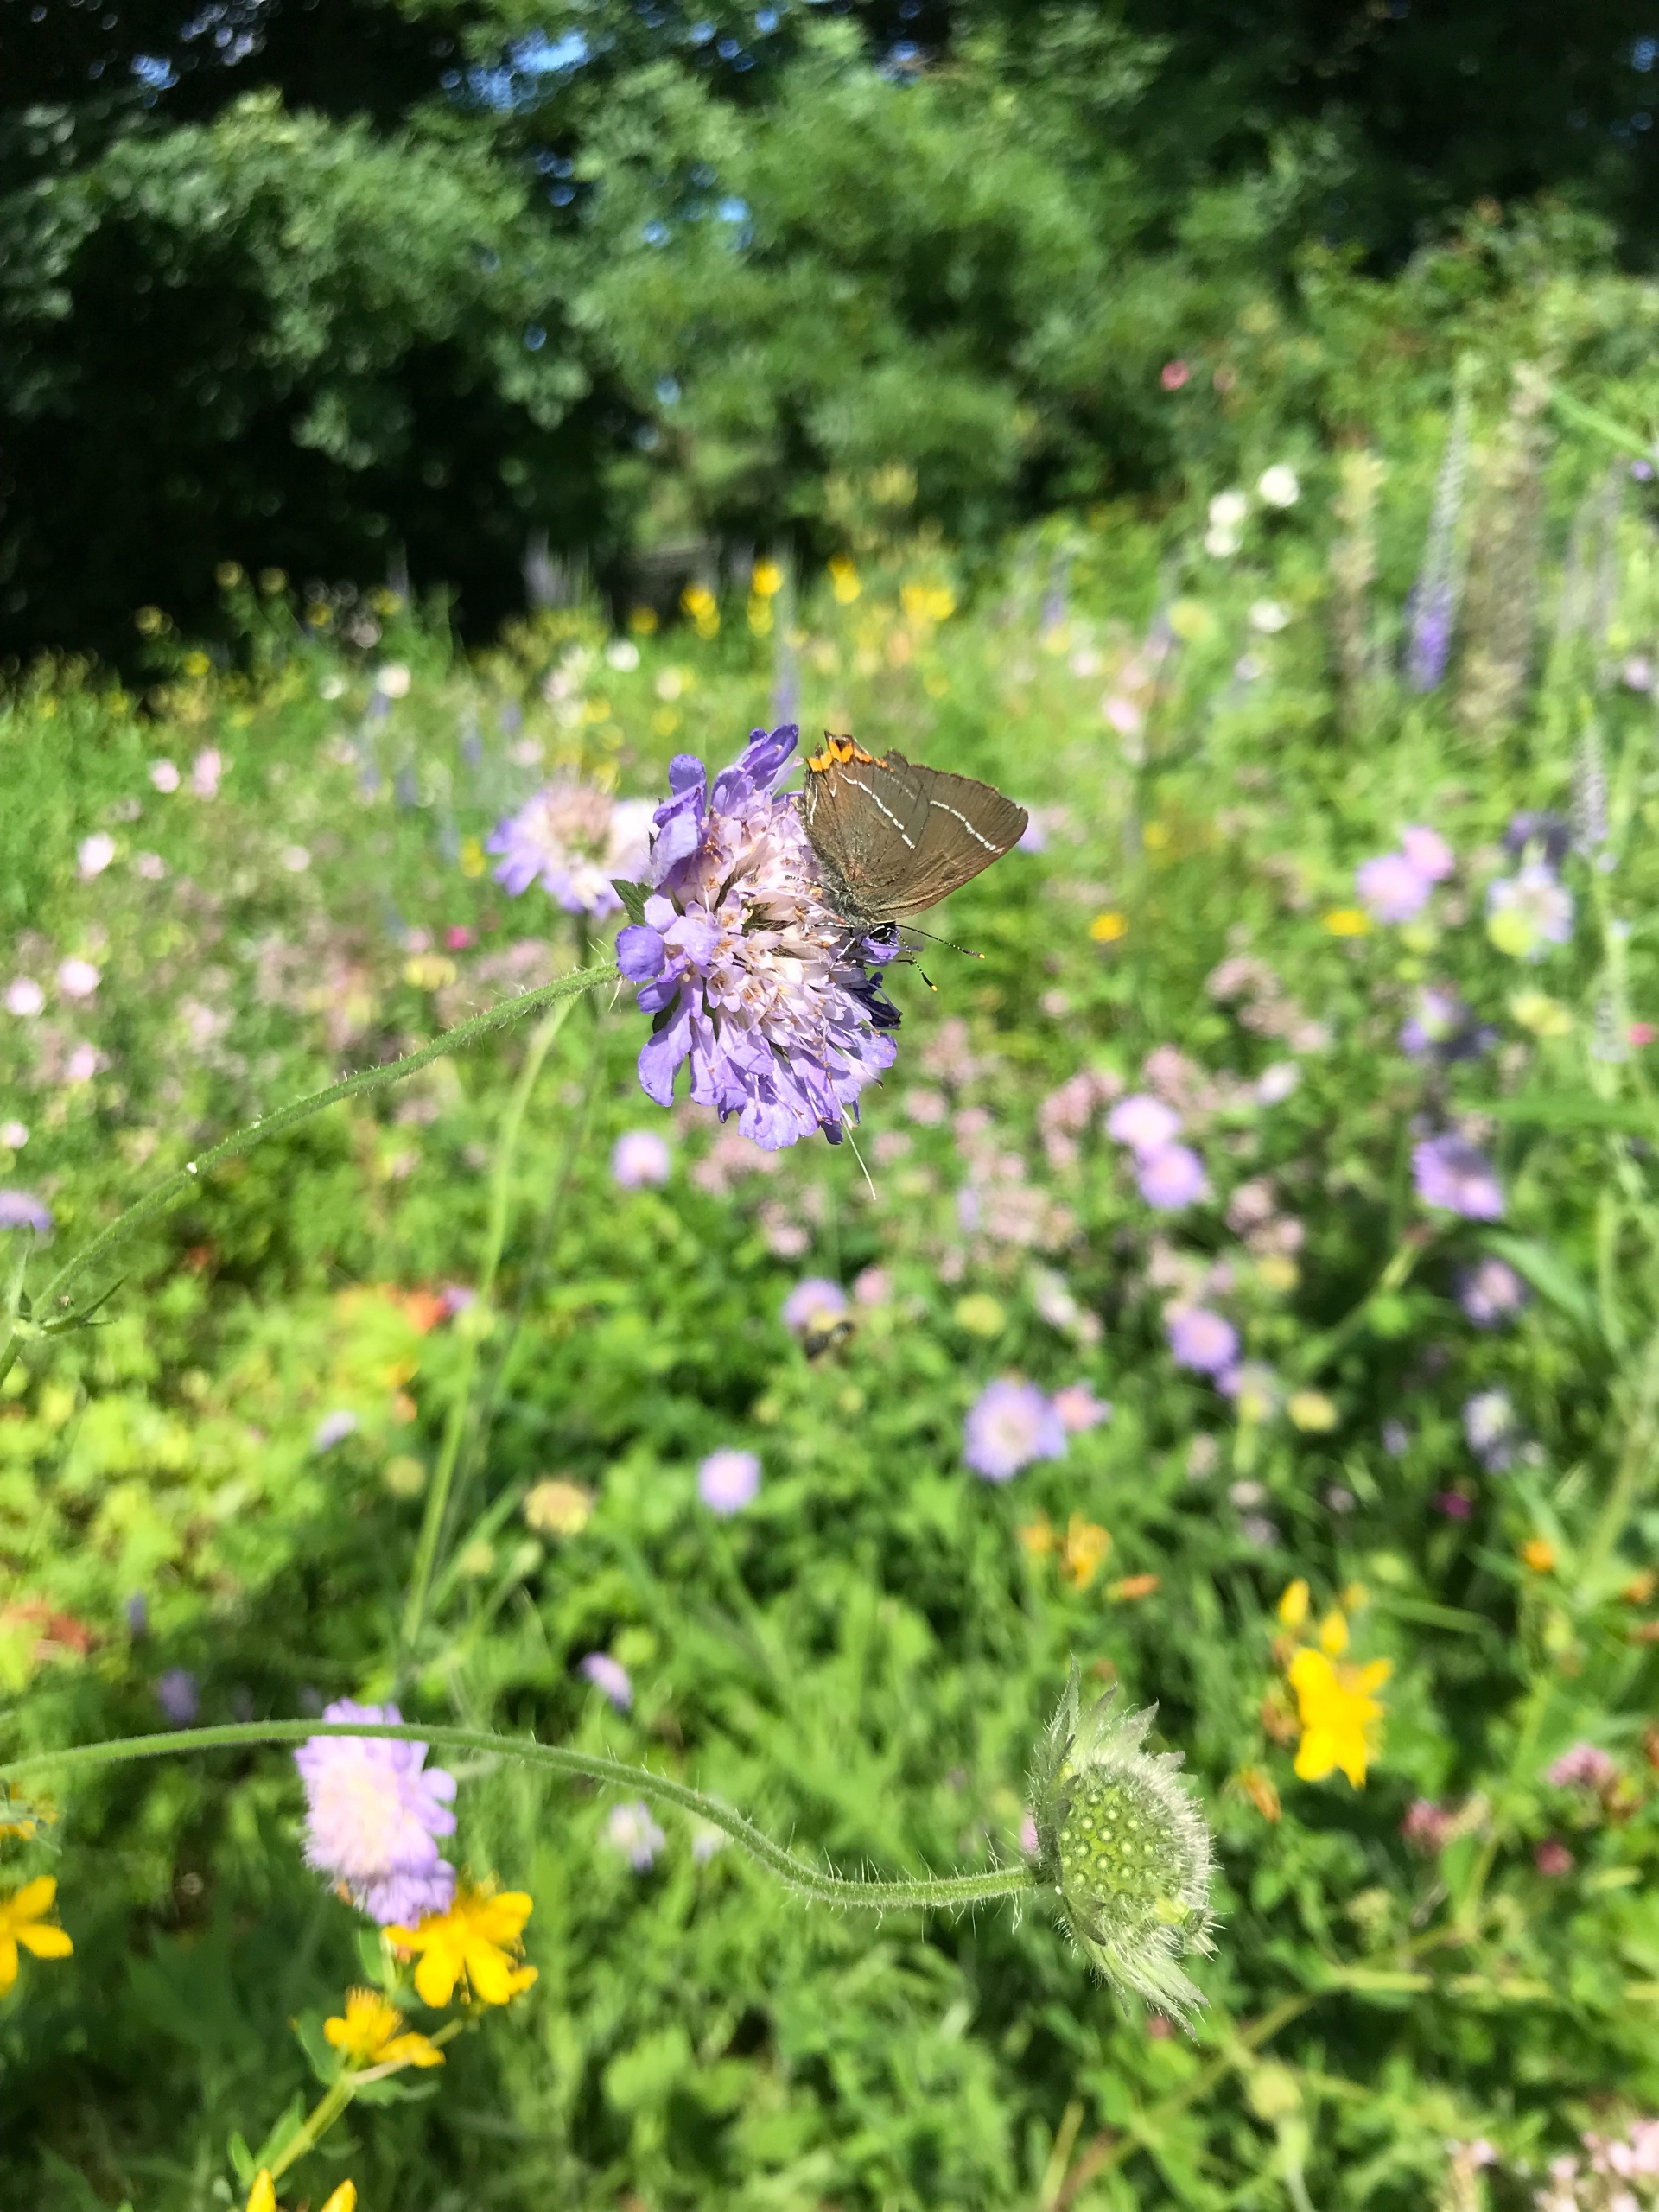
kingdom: Animalia
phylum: Arthropoda
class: Insecta
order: Lepidoptera
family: Lycaenidae
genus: Satyrium
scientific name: Satyrium w-album
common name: Det hvide W
